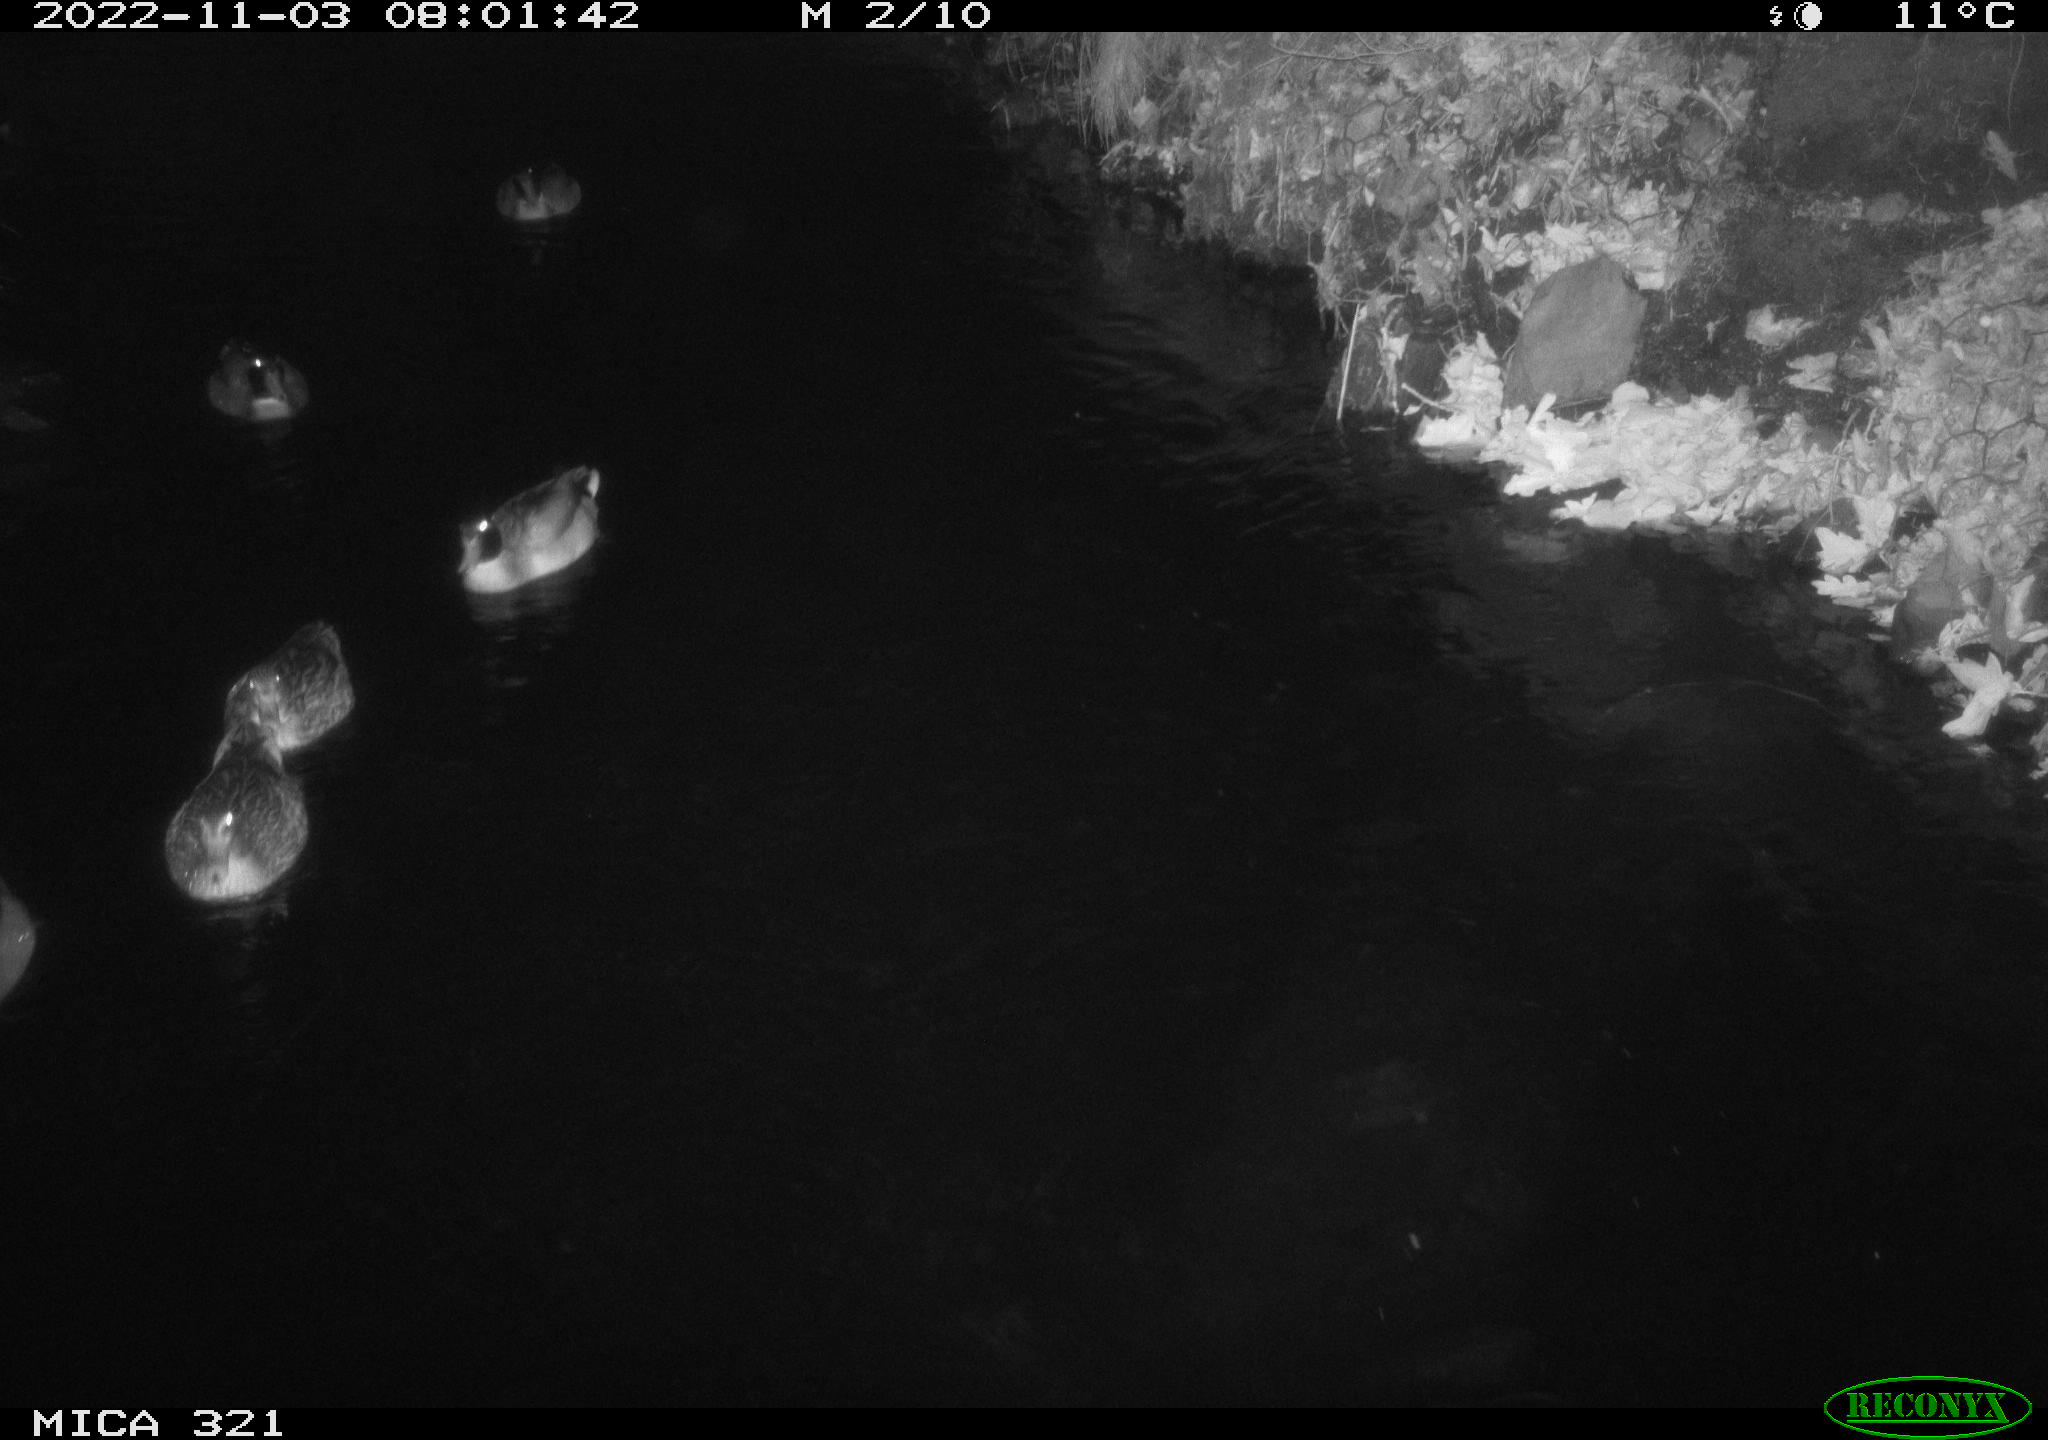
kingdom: Animalia
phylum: Chordata
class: Aves
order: Anseriformes
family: Anatidae
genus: Anas
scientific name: Anas
